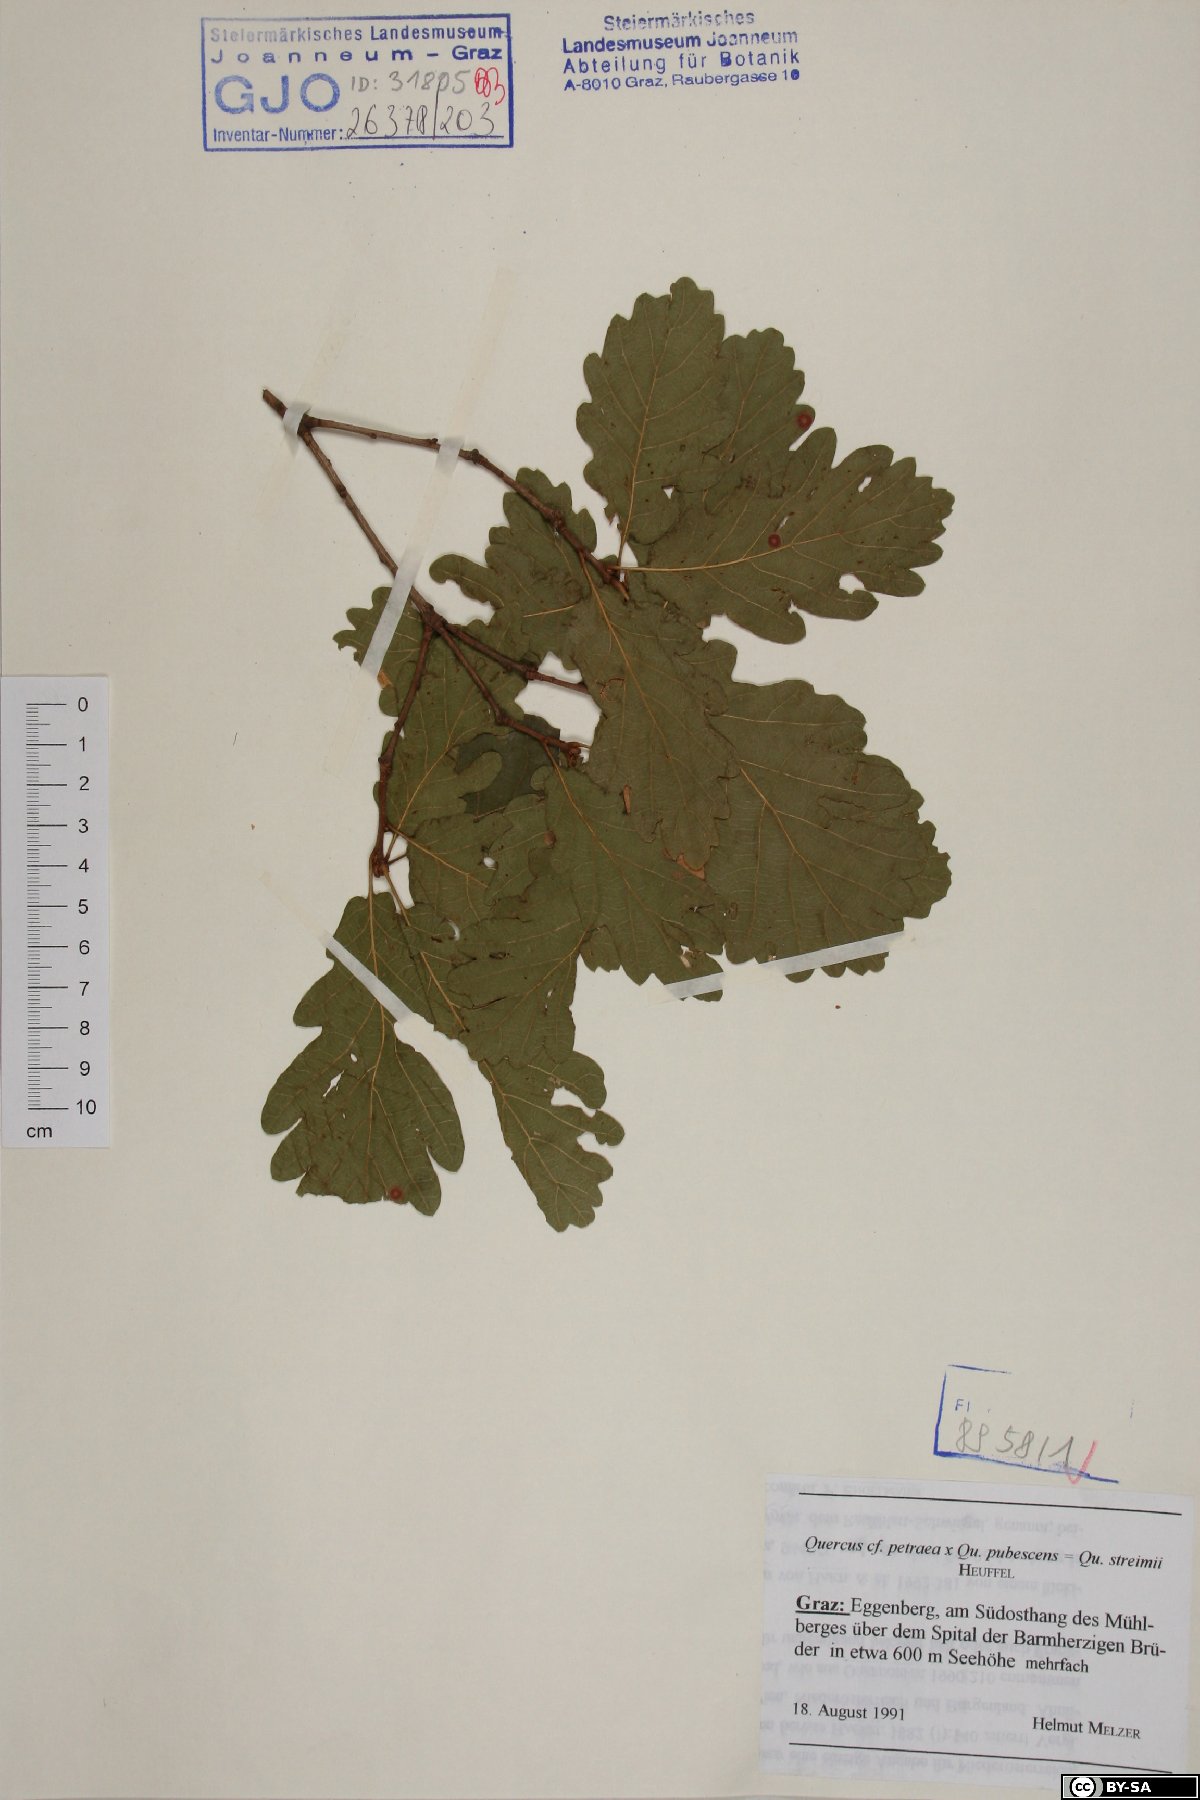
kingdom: Plantae
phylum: Tracheophyta
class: Magnoliopsida
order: Fagales
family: Fagaceae
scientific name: Fagaceae
